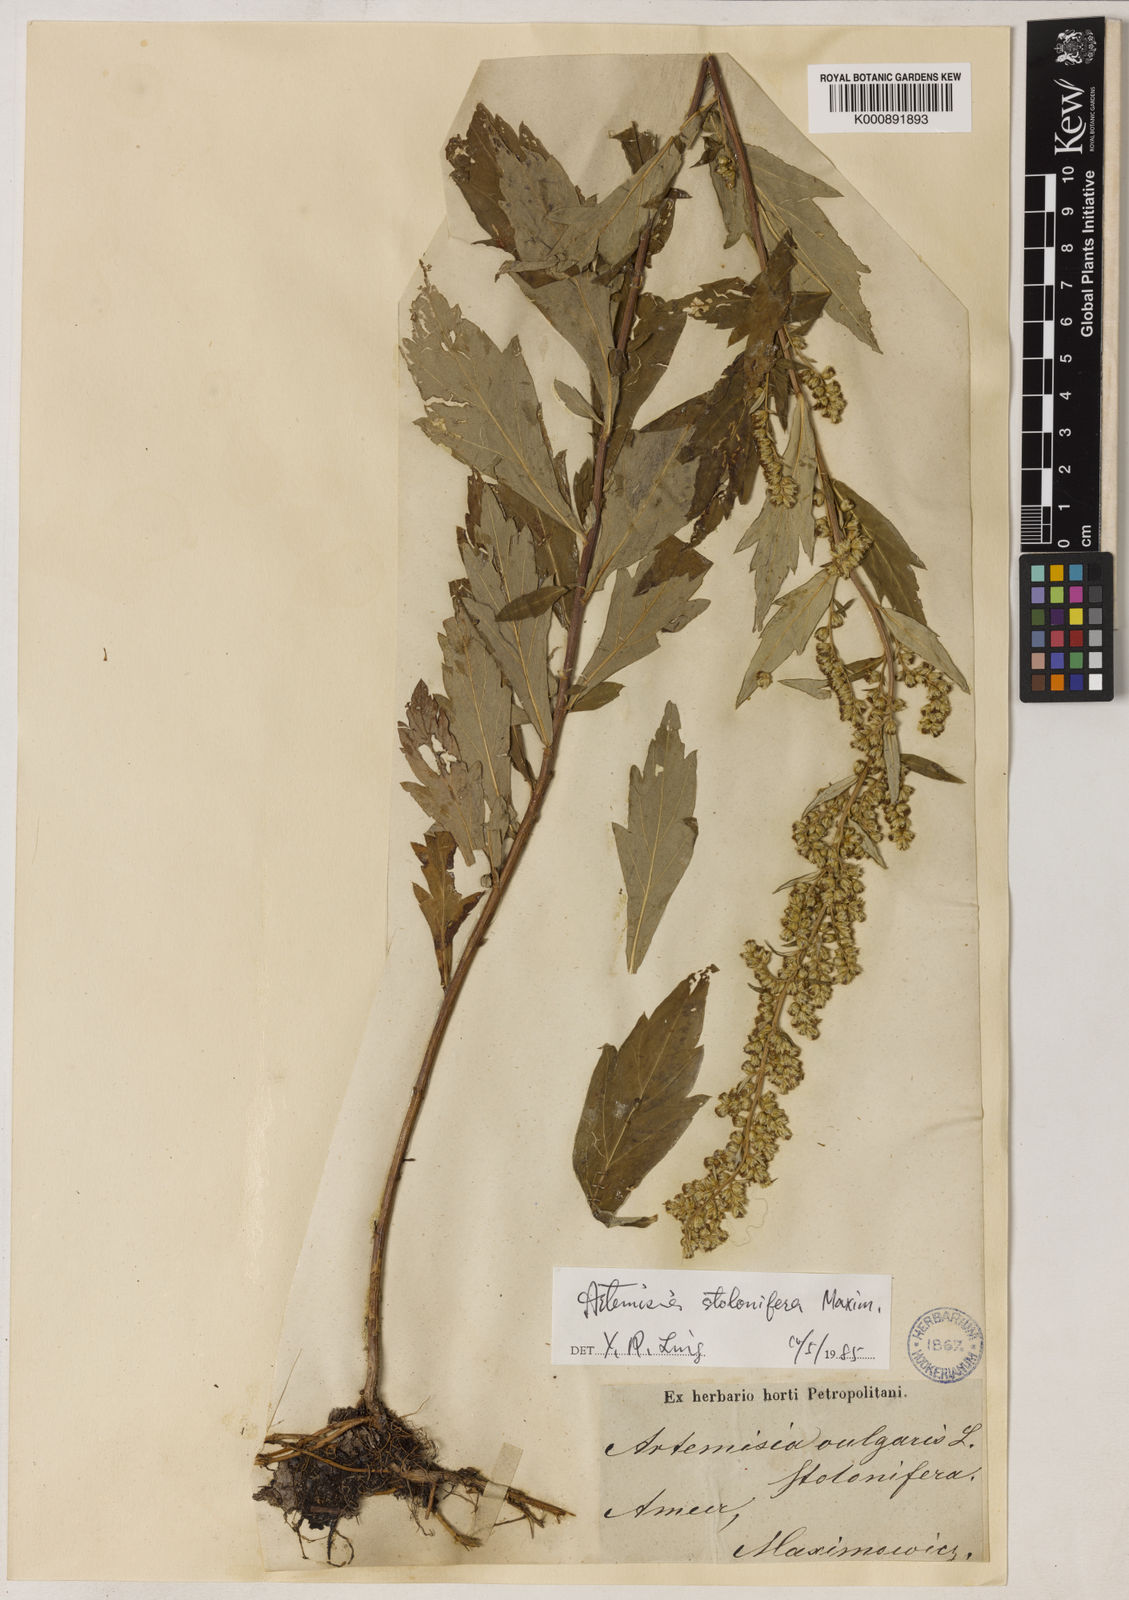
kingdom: Plantae
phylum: Tracheophyta
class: Magnoliopsida
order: Asterales
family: Asteraceae
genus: Artemisia
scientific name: Artemisia stolonifera
